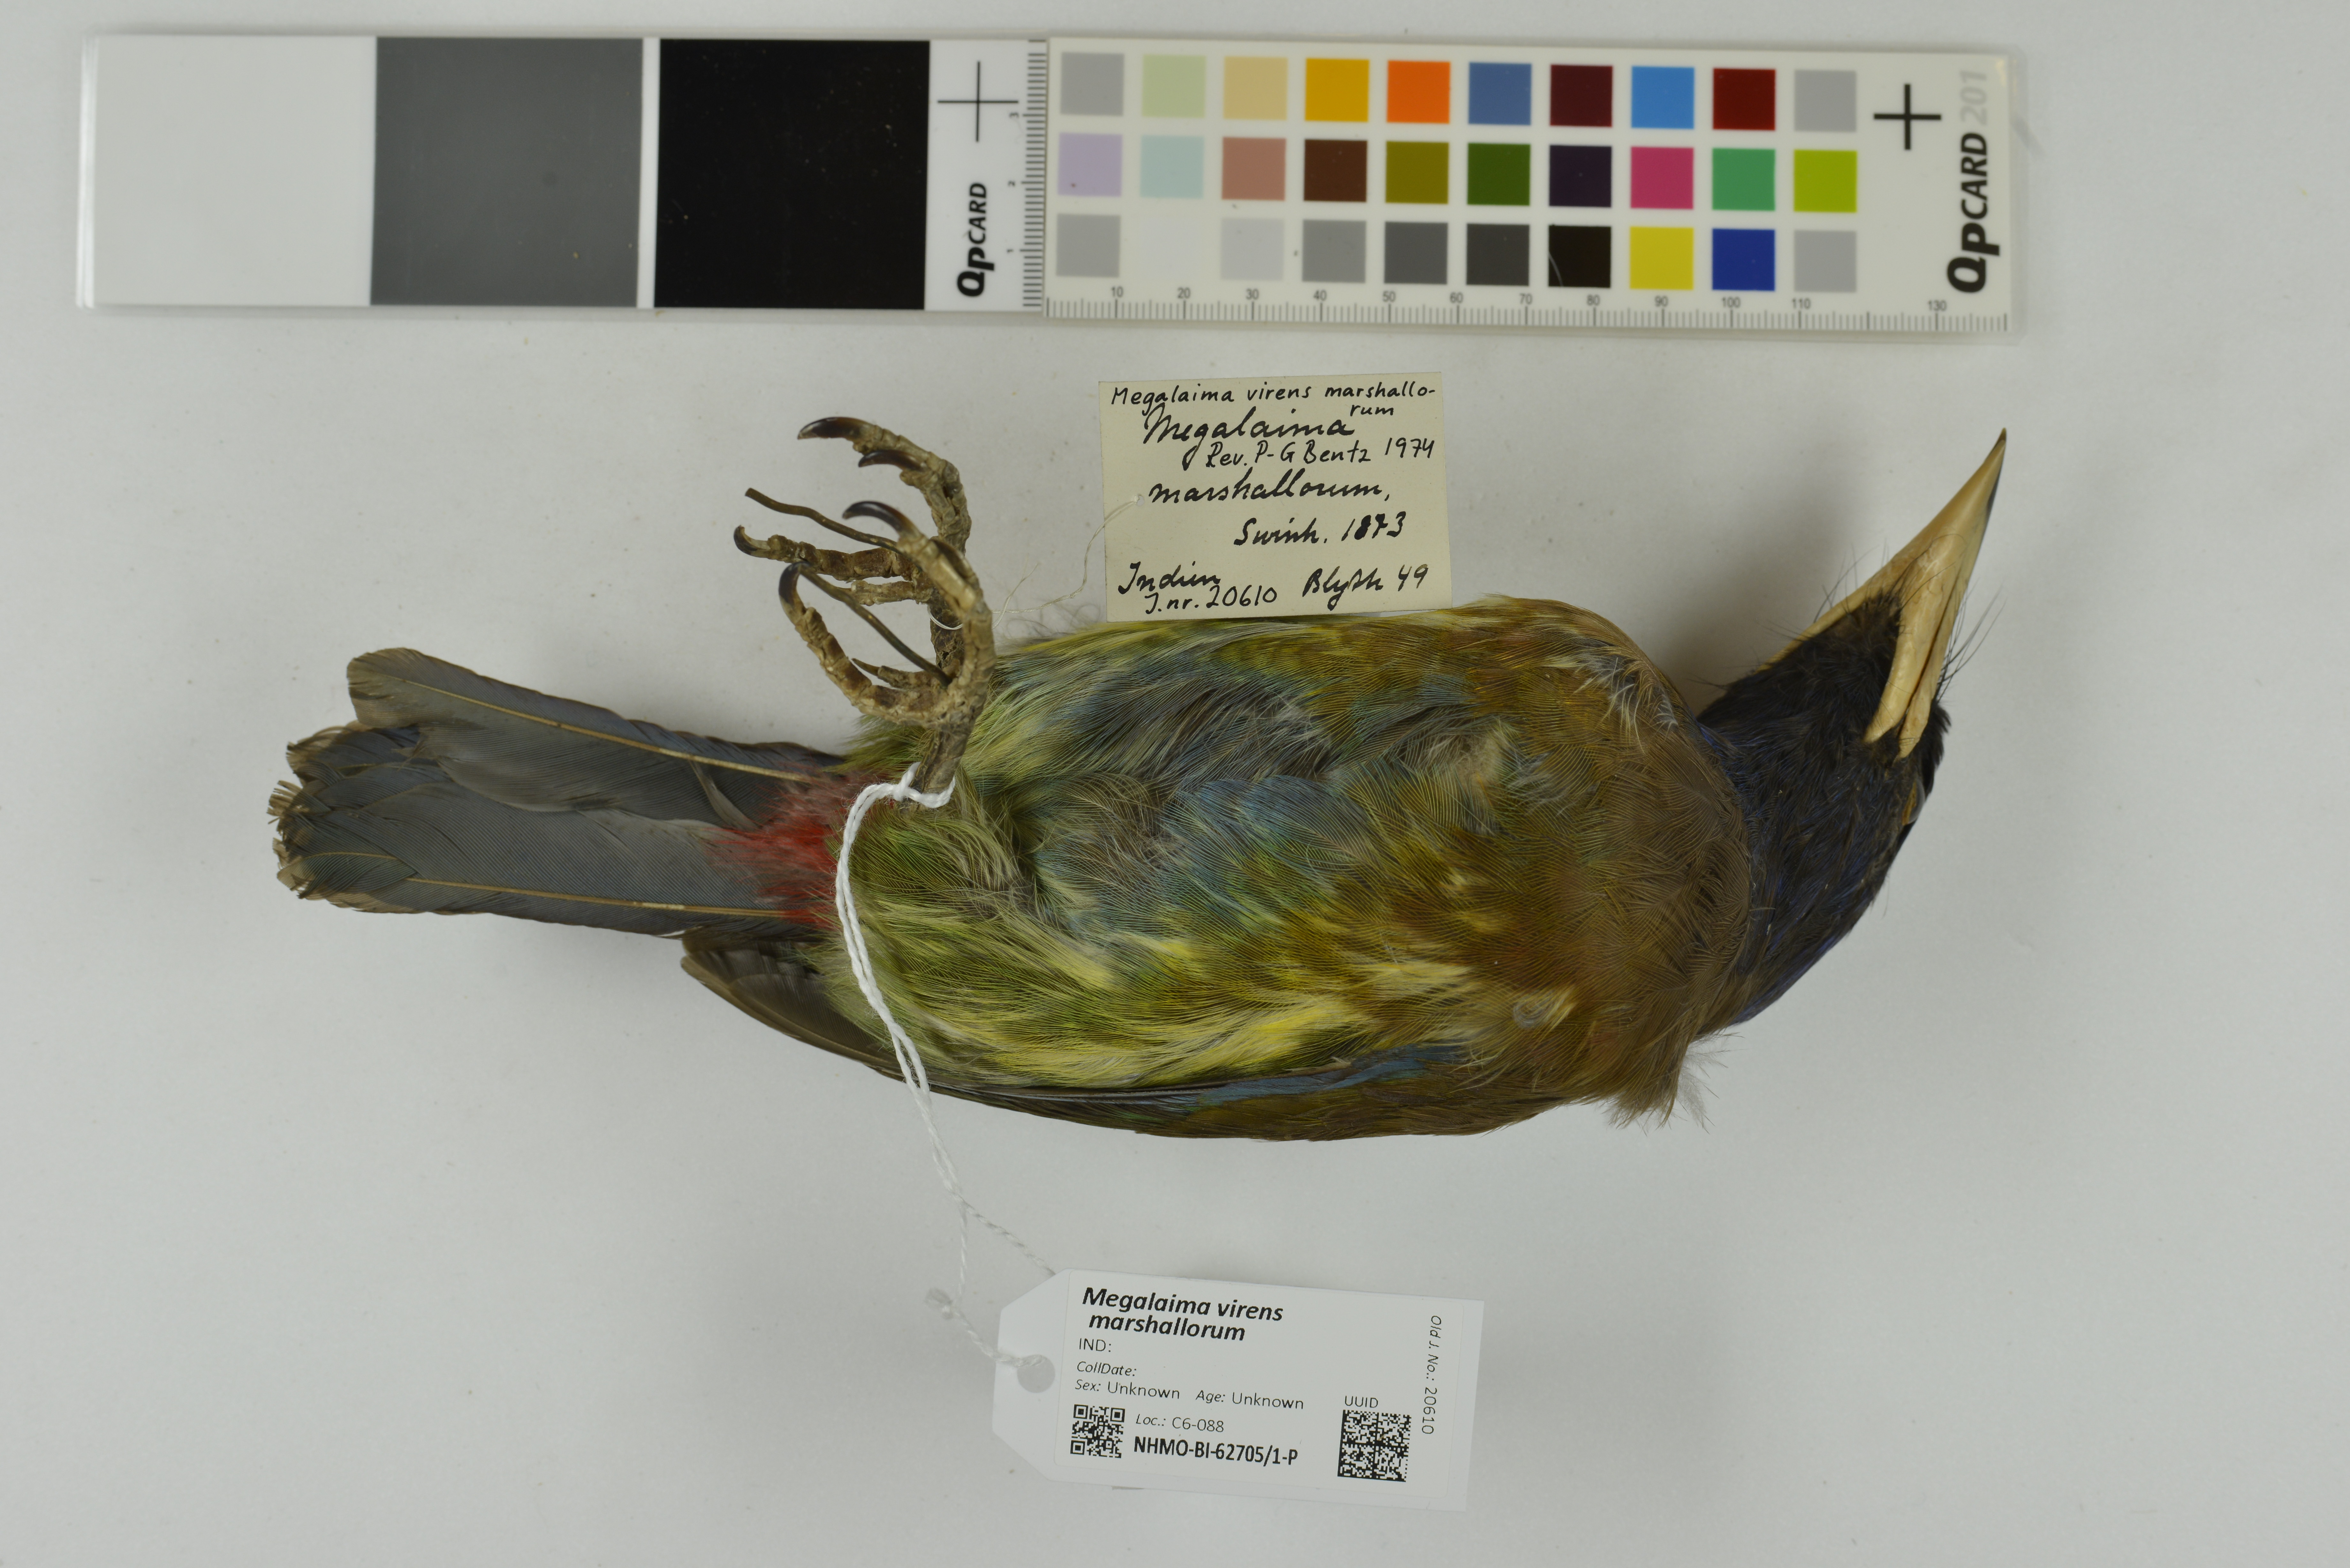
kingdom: Animalia
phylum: Chordata
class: Aves
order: Piciformes
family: Megalaimidae
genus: Psilopogon
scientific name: Psilopogon virens
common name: Great barbet
